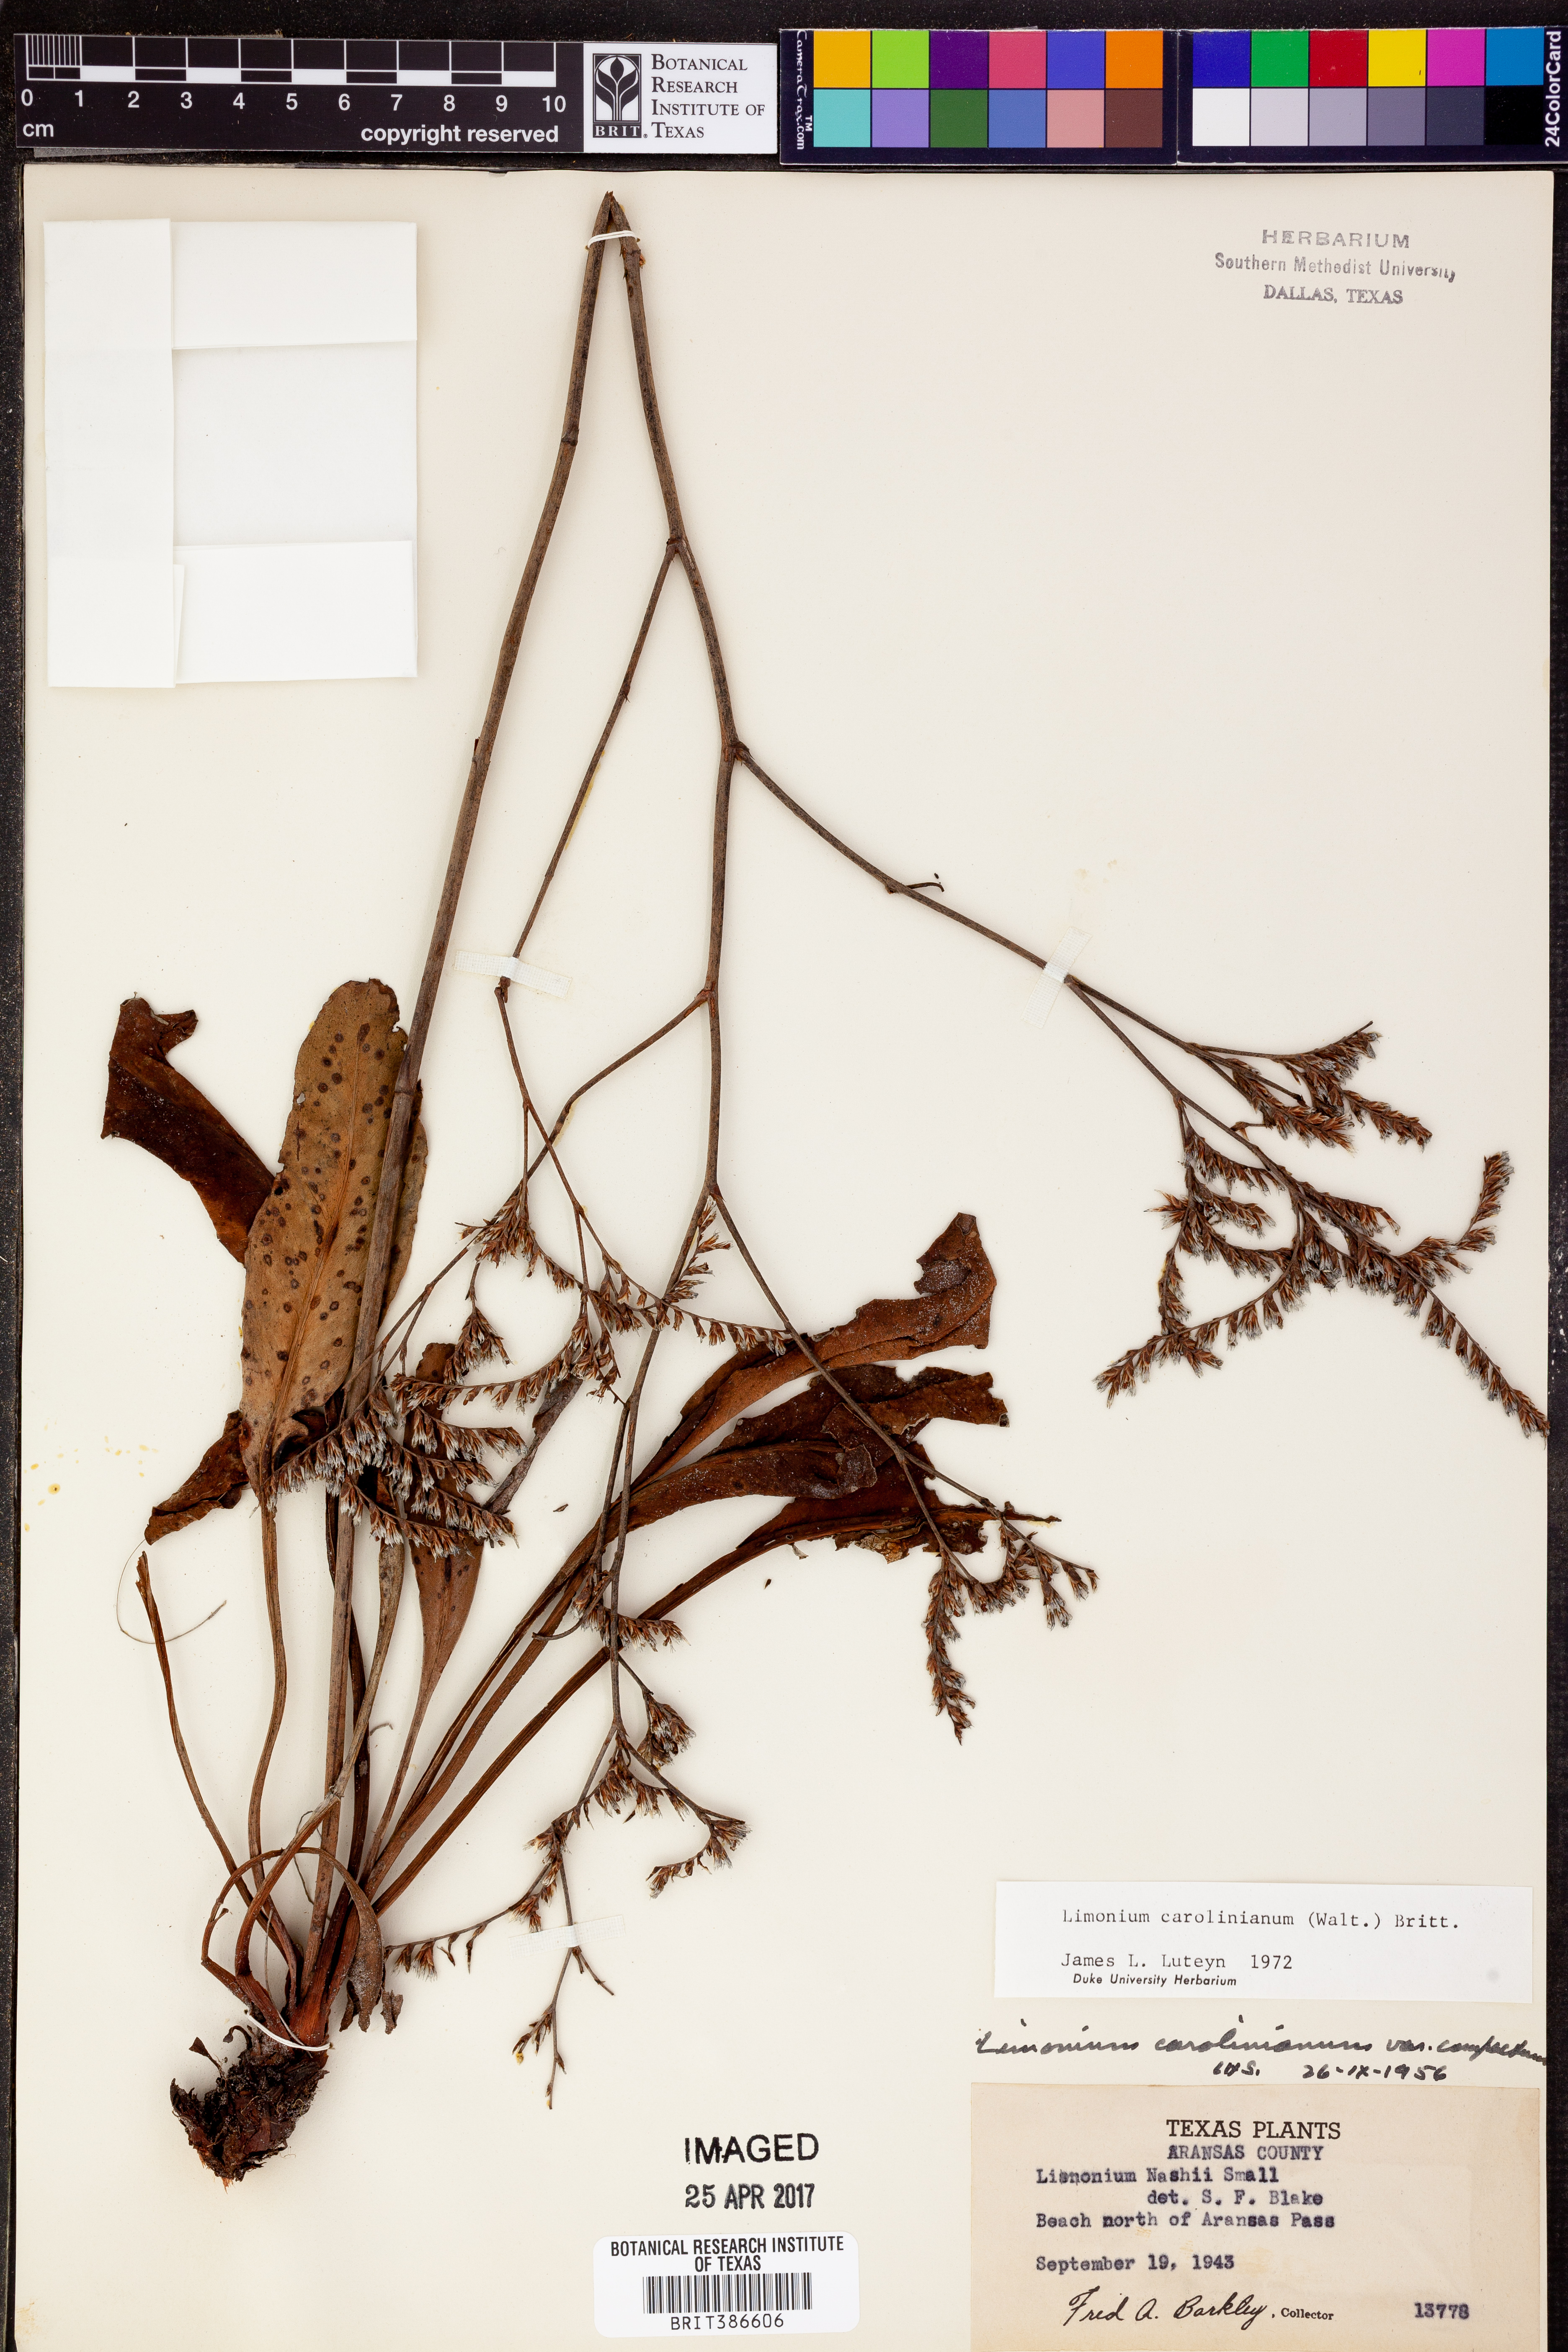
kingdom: Plantae
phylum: Tracheophyta
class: Magnoliopsida
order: Caryophyllales
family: Plumbaginaceae
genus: Limonium
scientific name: Limonium carolinianum
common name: Carolina sea lavender
